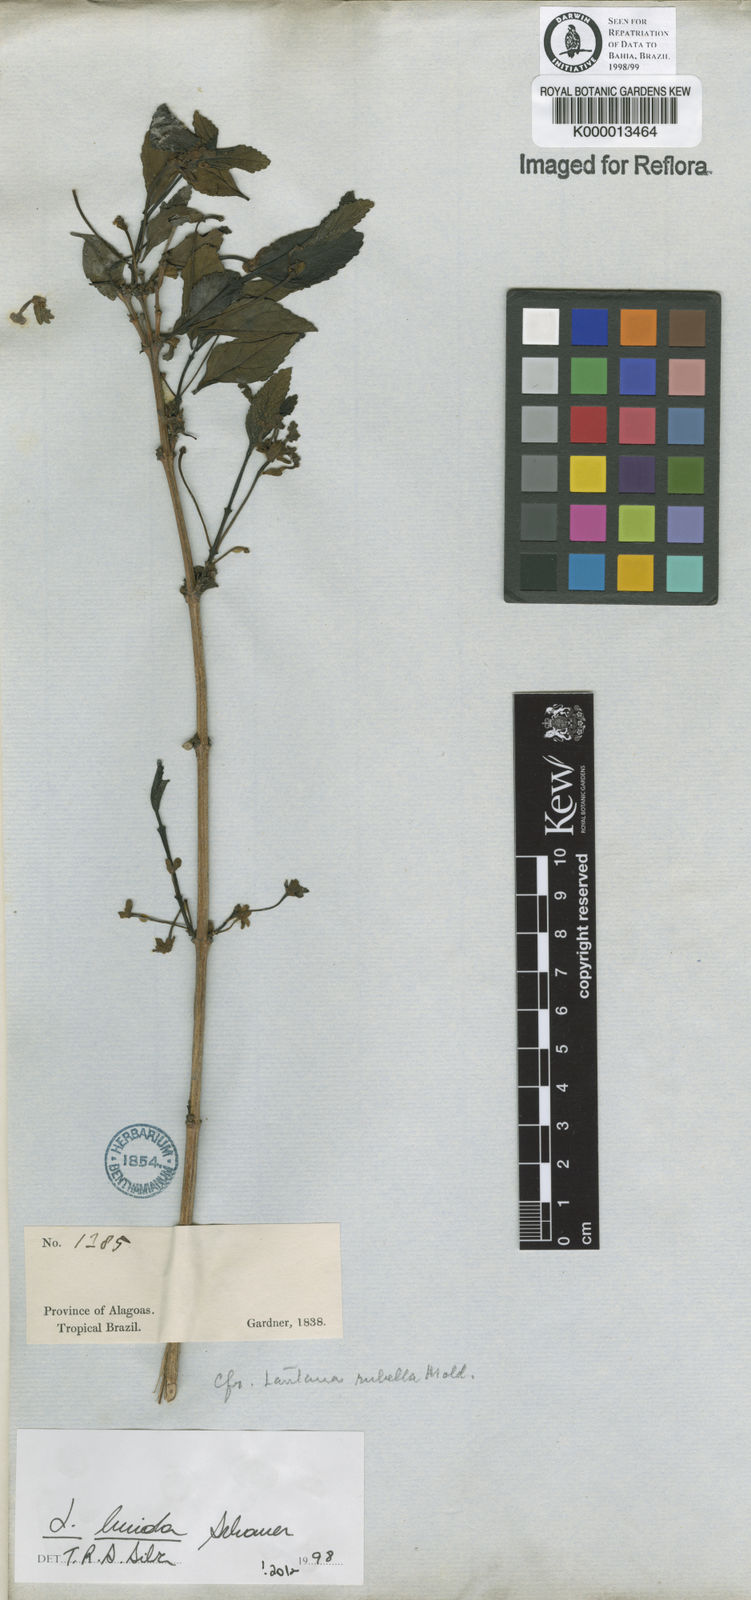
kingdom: Plantae
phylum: Tracheophyta
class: Magnoliopsida
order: Lamiales
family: Verbenaceae
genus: Lantana
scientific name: Lantana lucida
